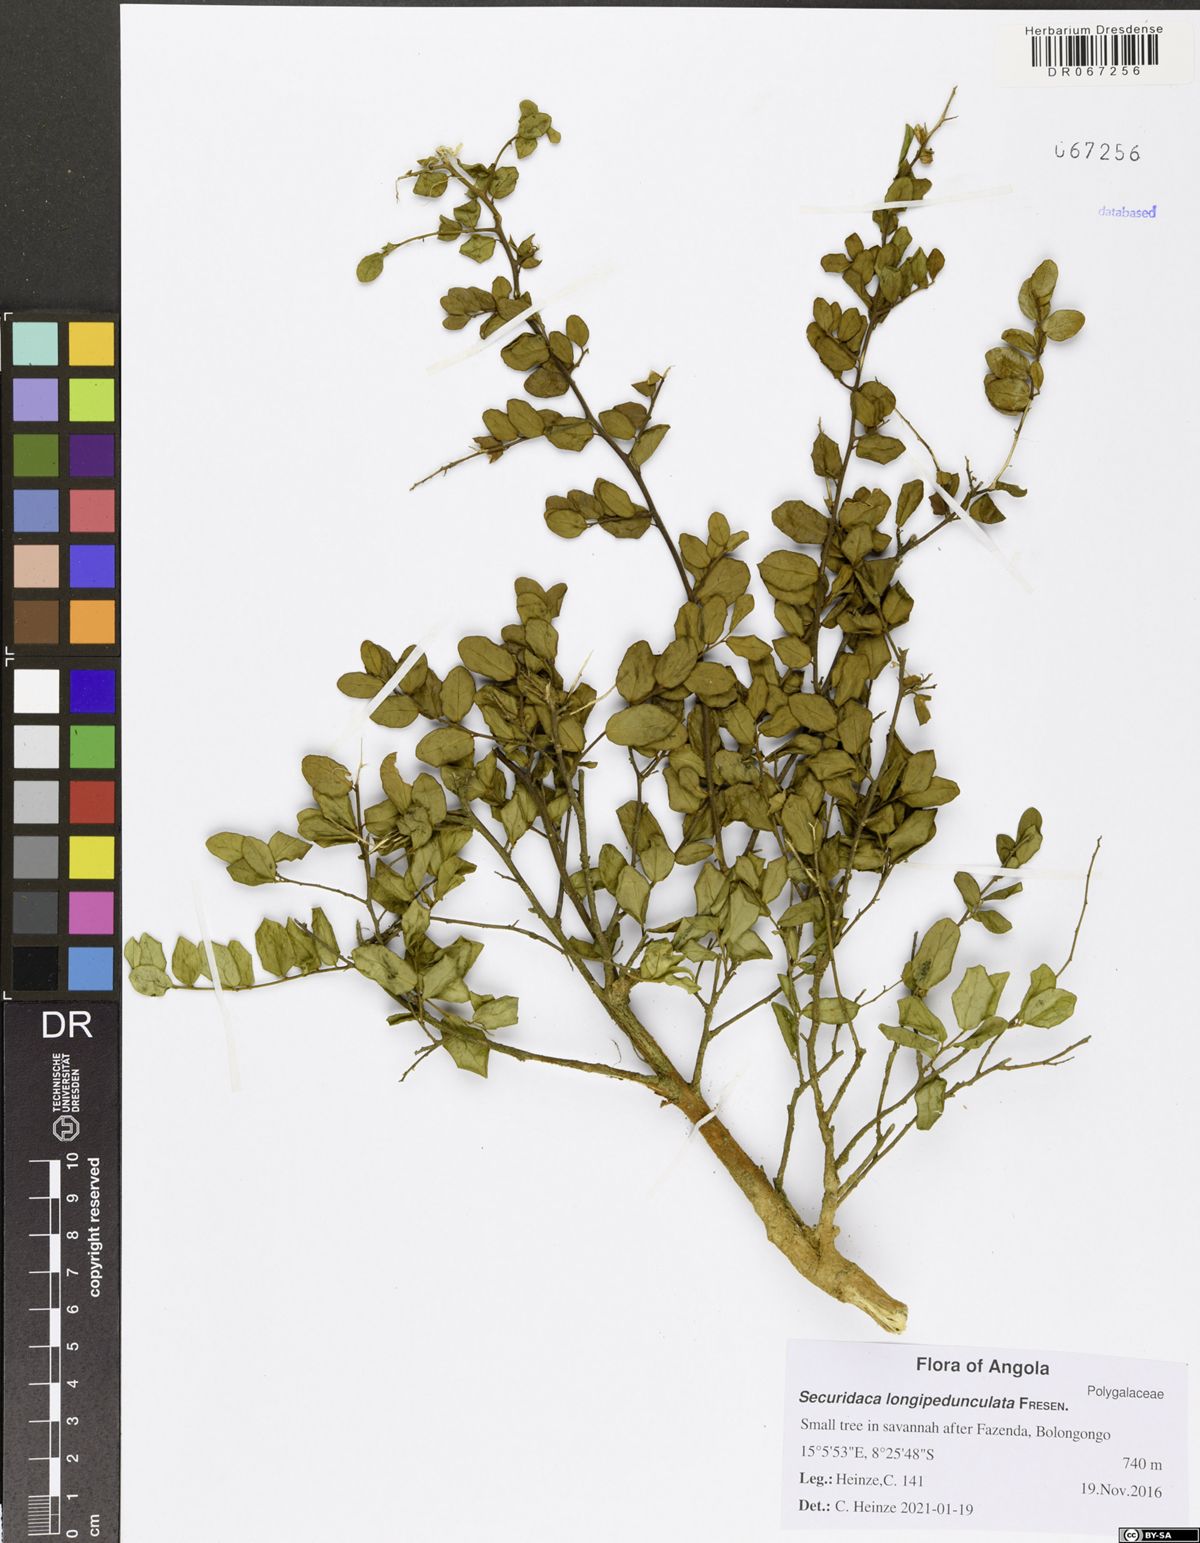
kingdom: Plantae
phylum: Tracheophyta
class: Magnoliopsida
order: Fabales
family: Polygalaceae
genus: Securidaca
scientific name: Securidaca longepedunculata
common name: Violet tree
